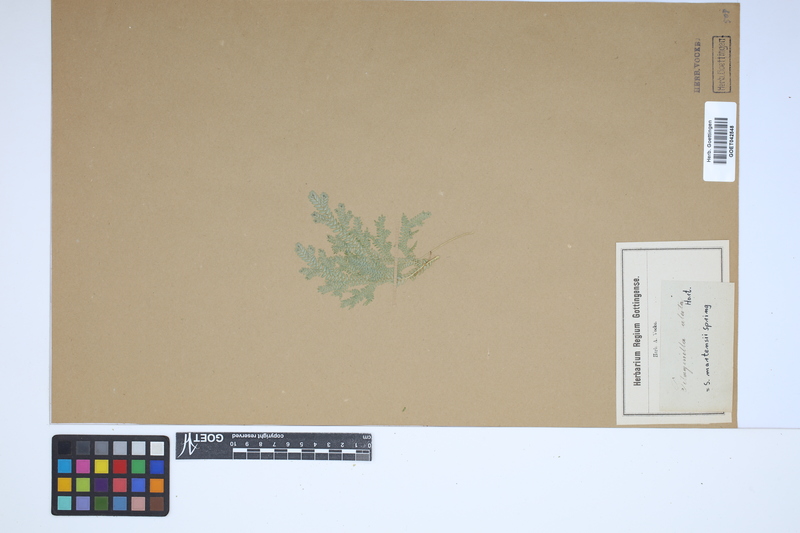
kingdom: Plantae
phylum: Tracheophyta
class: Lycopodiopsida
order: Selaginellales
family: Selaginellaceae
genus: Selaginella
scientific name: Selaginella martensii
